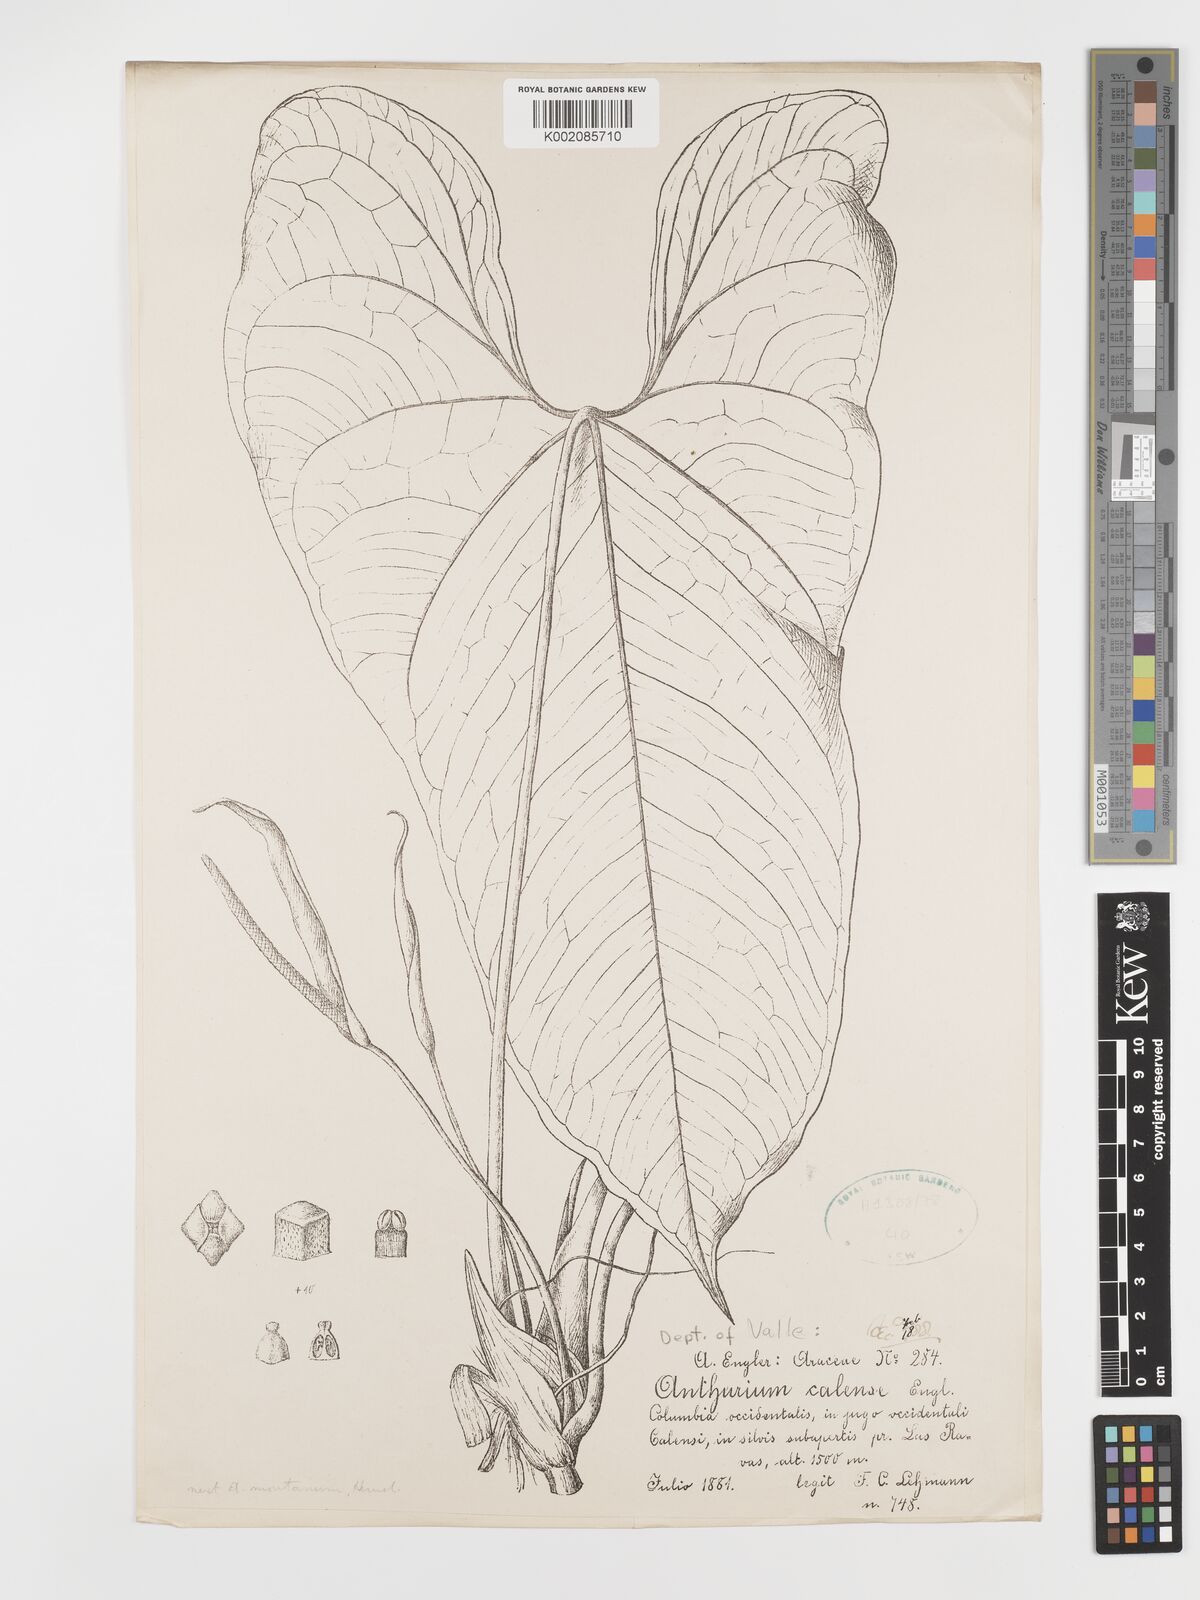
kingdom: Plantae
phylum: Tracheophyta
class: Liliopsida
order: Alismatales
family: Araceae
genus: Anthurium
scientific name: Anthurium nigrescens
